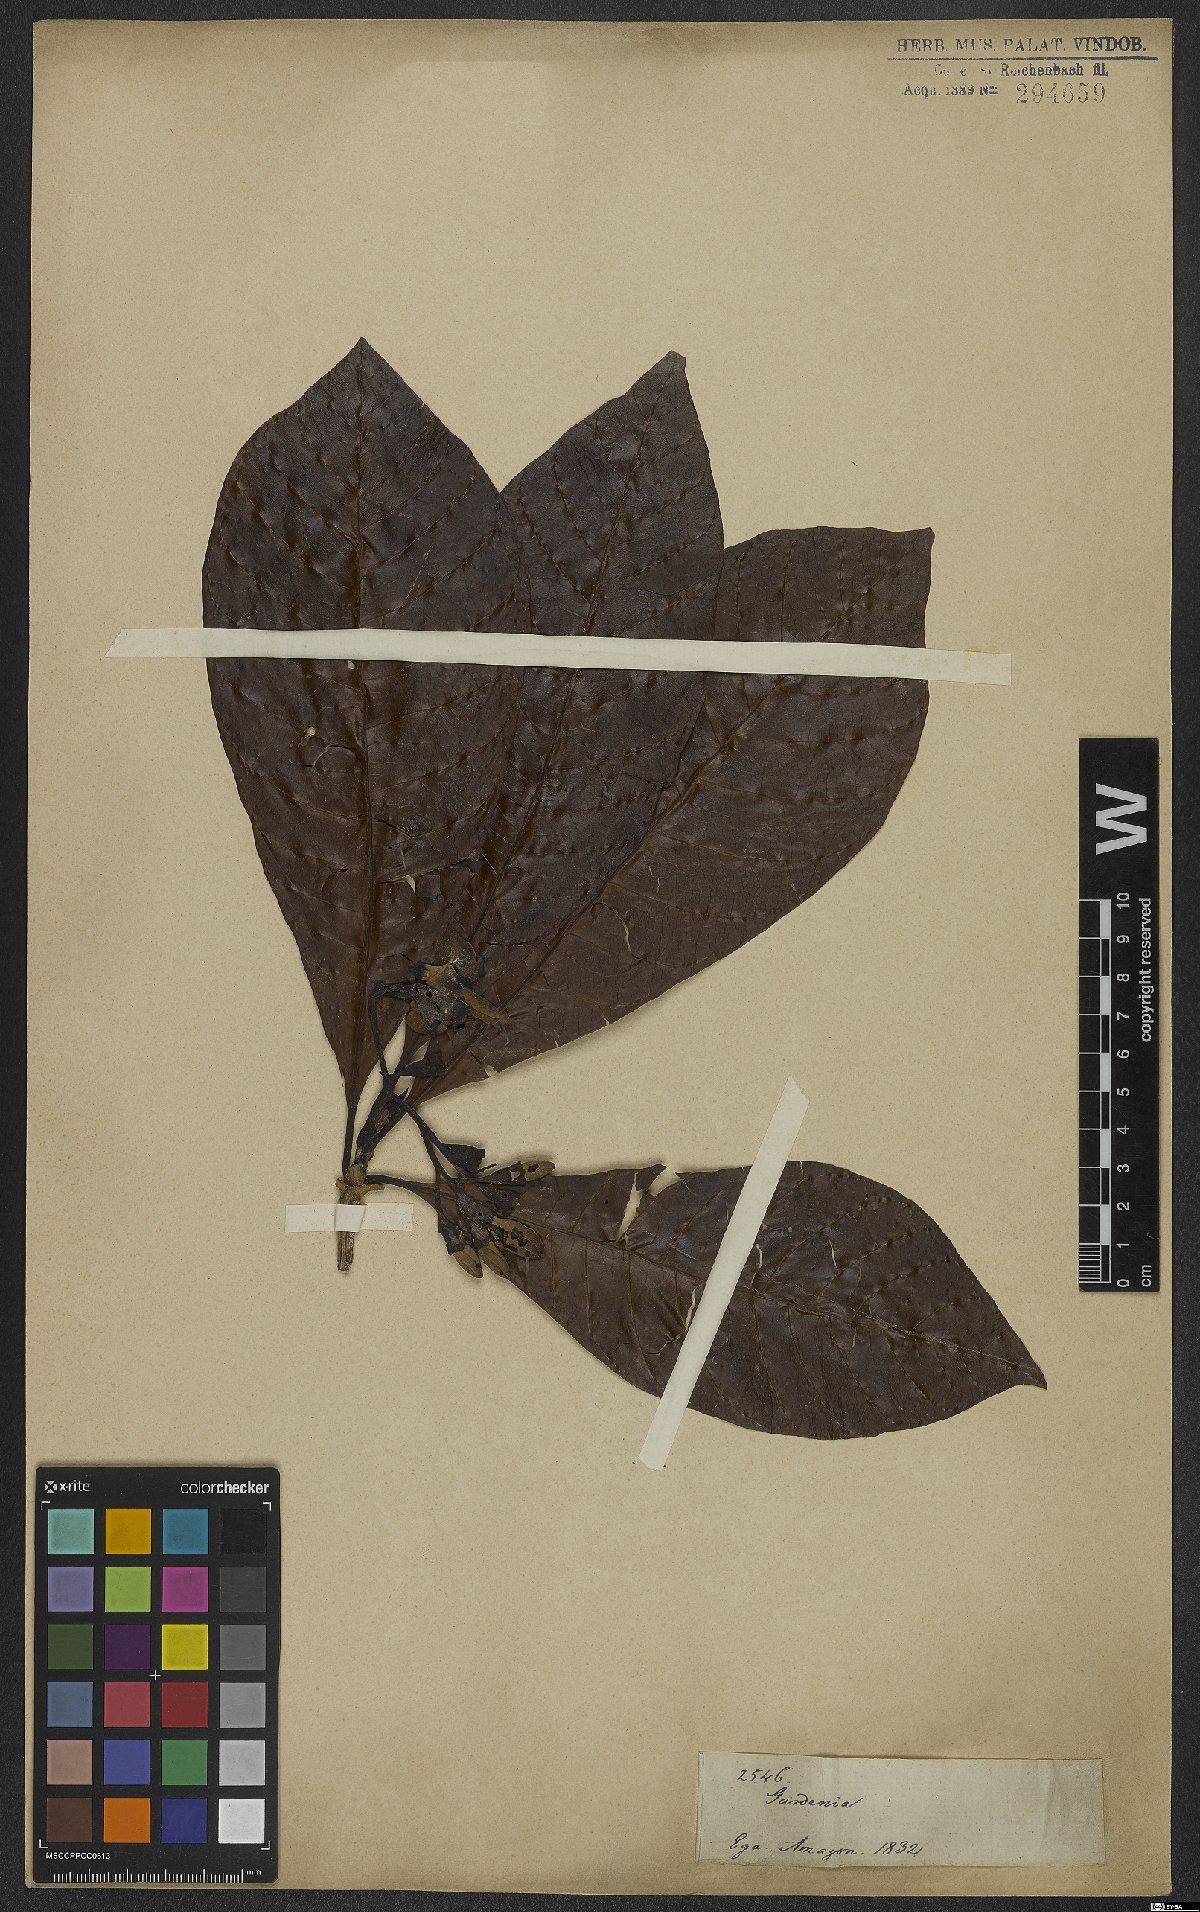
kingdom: Plantae
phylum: Tracheophyta
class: Magnoliopsida
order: Gentianales
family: Rubiaceae
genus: Gardenia
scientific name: Gardenia
